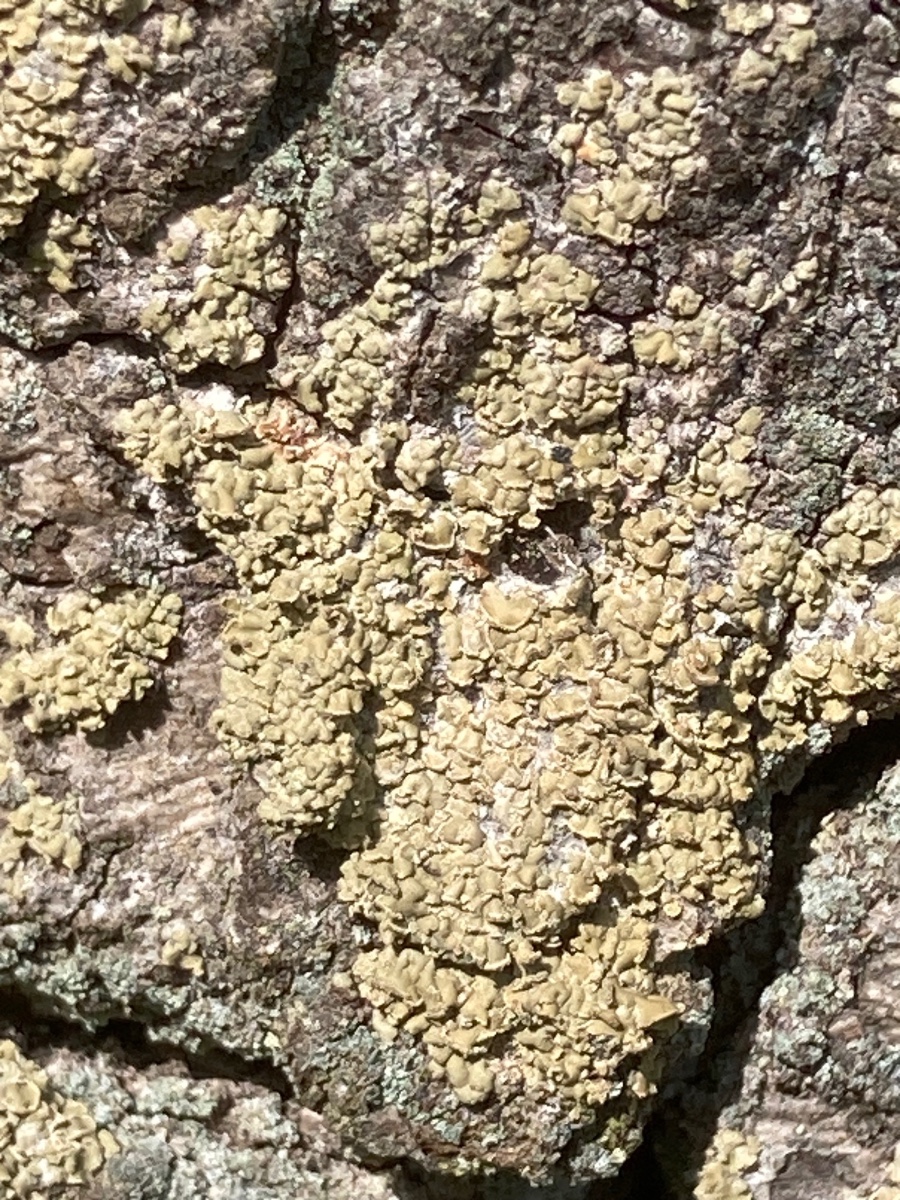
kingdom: Fungi
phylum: Ascomycota
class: Lecanoromycetes
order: Umbilicariales
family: Ophioparmaceae
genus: Hypocenomyce
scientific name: Hypocenomyce scalaris
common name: småskællet muslinglav
